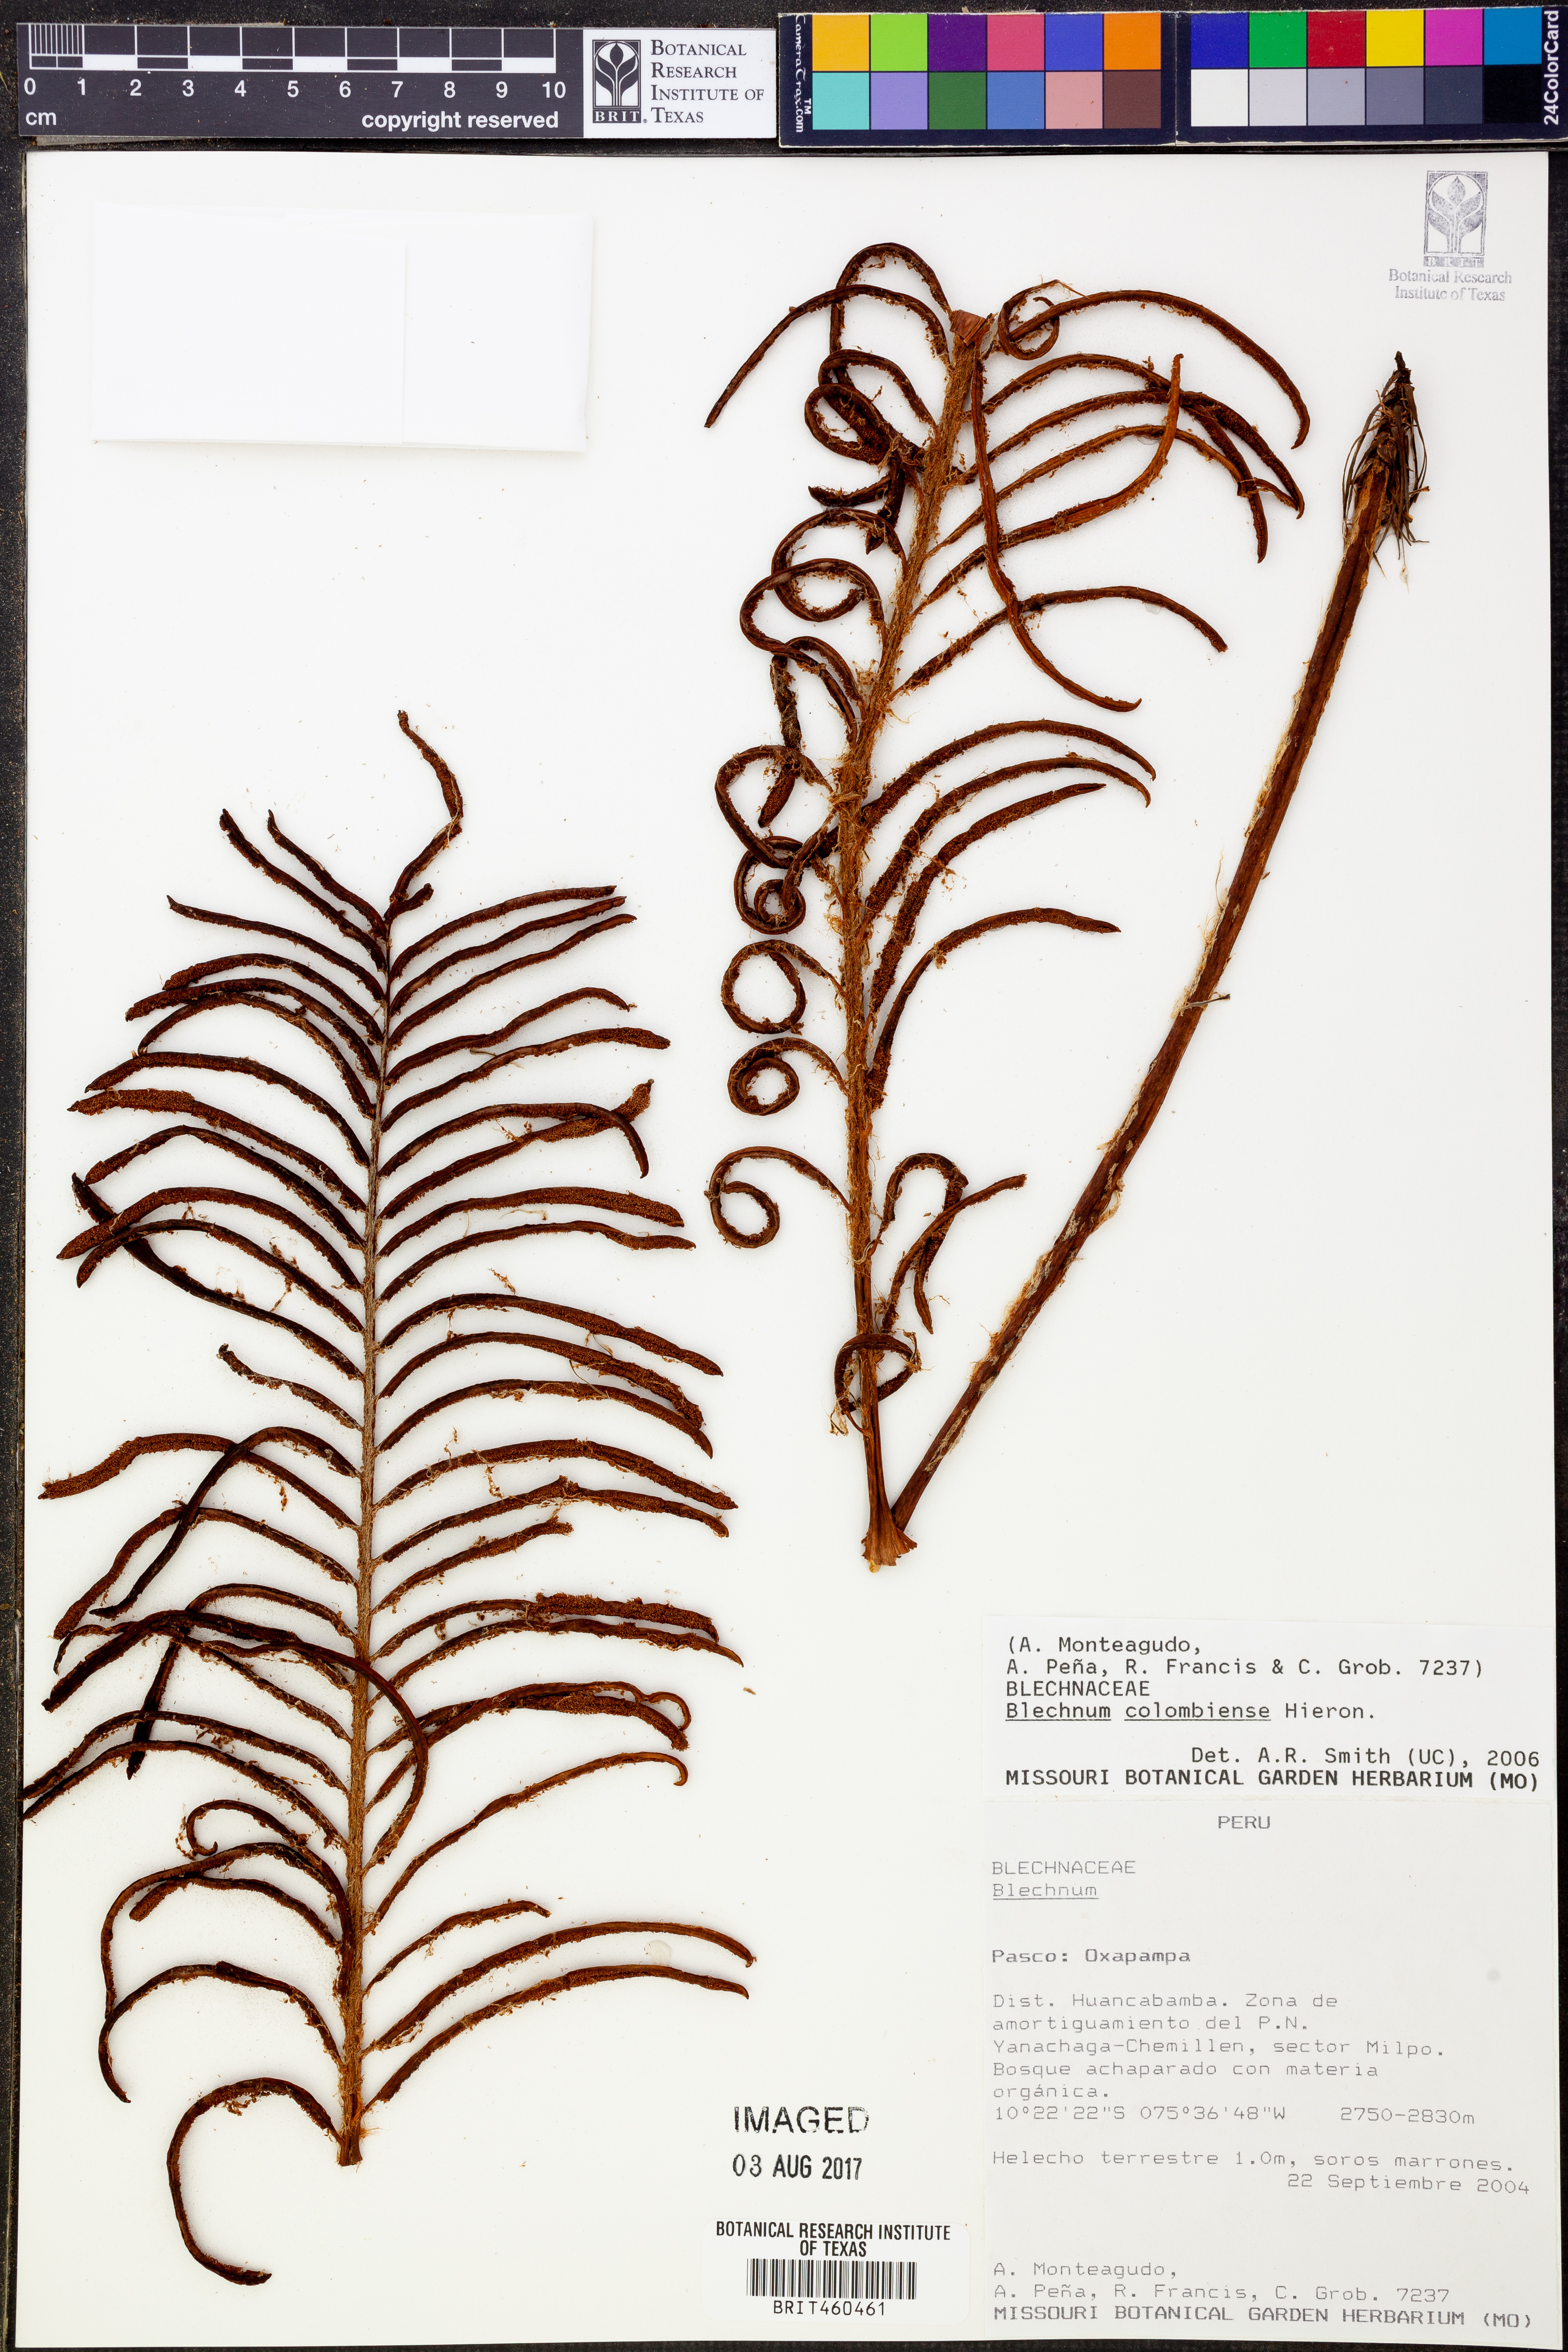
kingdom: Plantae
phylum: Tracheophyta
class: Polypodiopsida
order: Polypodiales
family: Blechnaceae
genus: Lomariocycas
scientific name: Lomariocycas columbiensis
